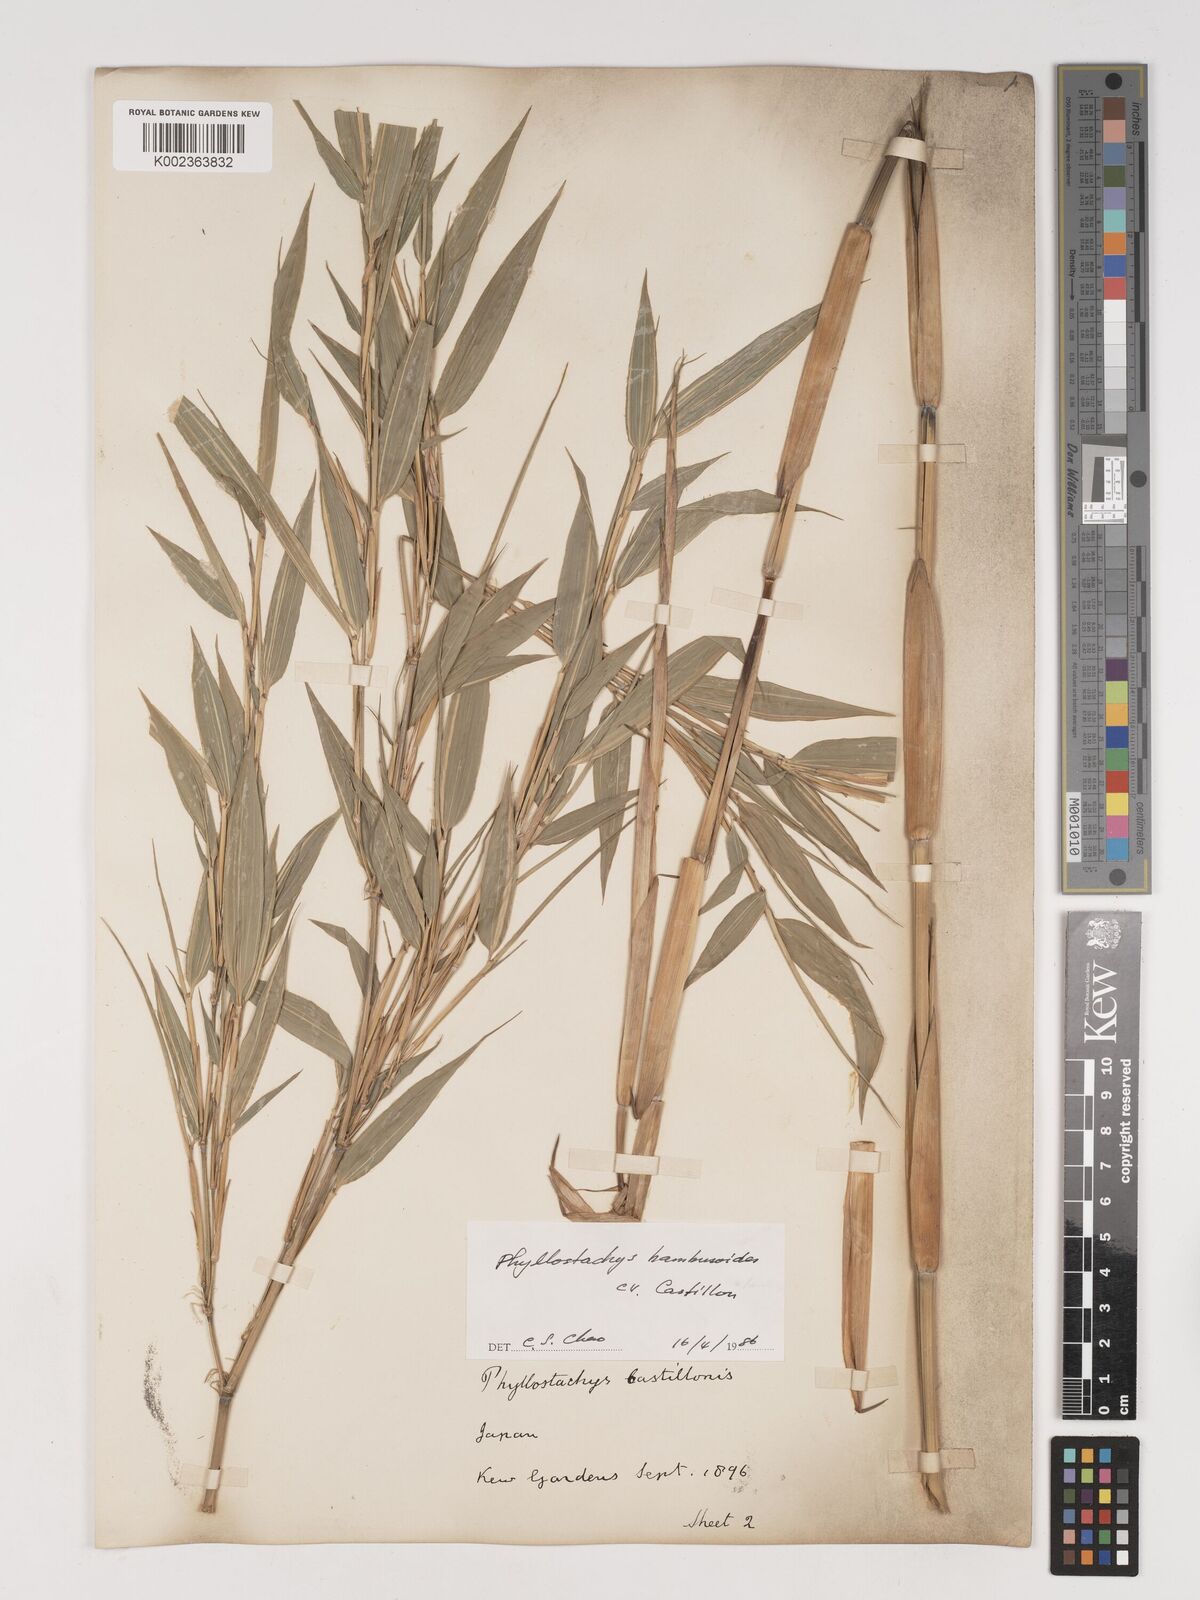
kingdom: Plantae
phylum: Tracheophyta
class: Liliopsida
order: Poales
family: Poaceae
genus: Phyllostachys
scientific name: Phyllostachys reticulata
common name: Bamboo
